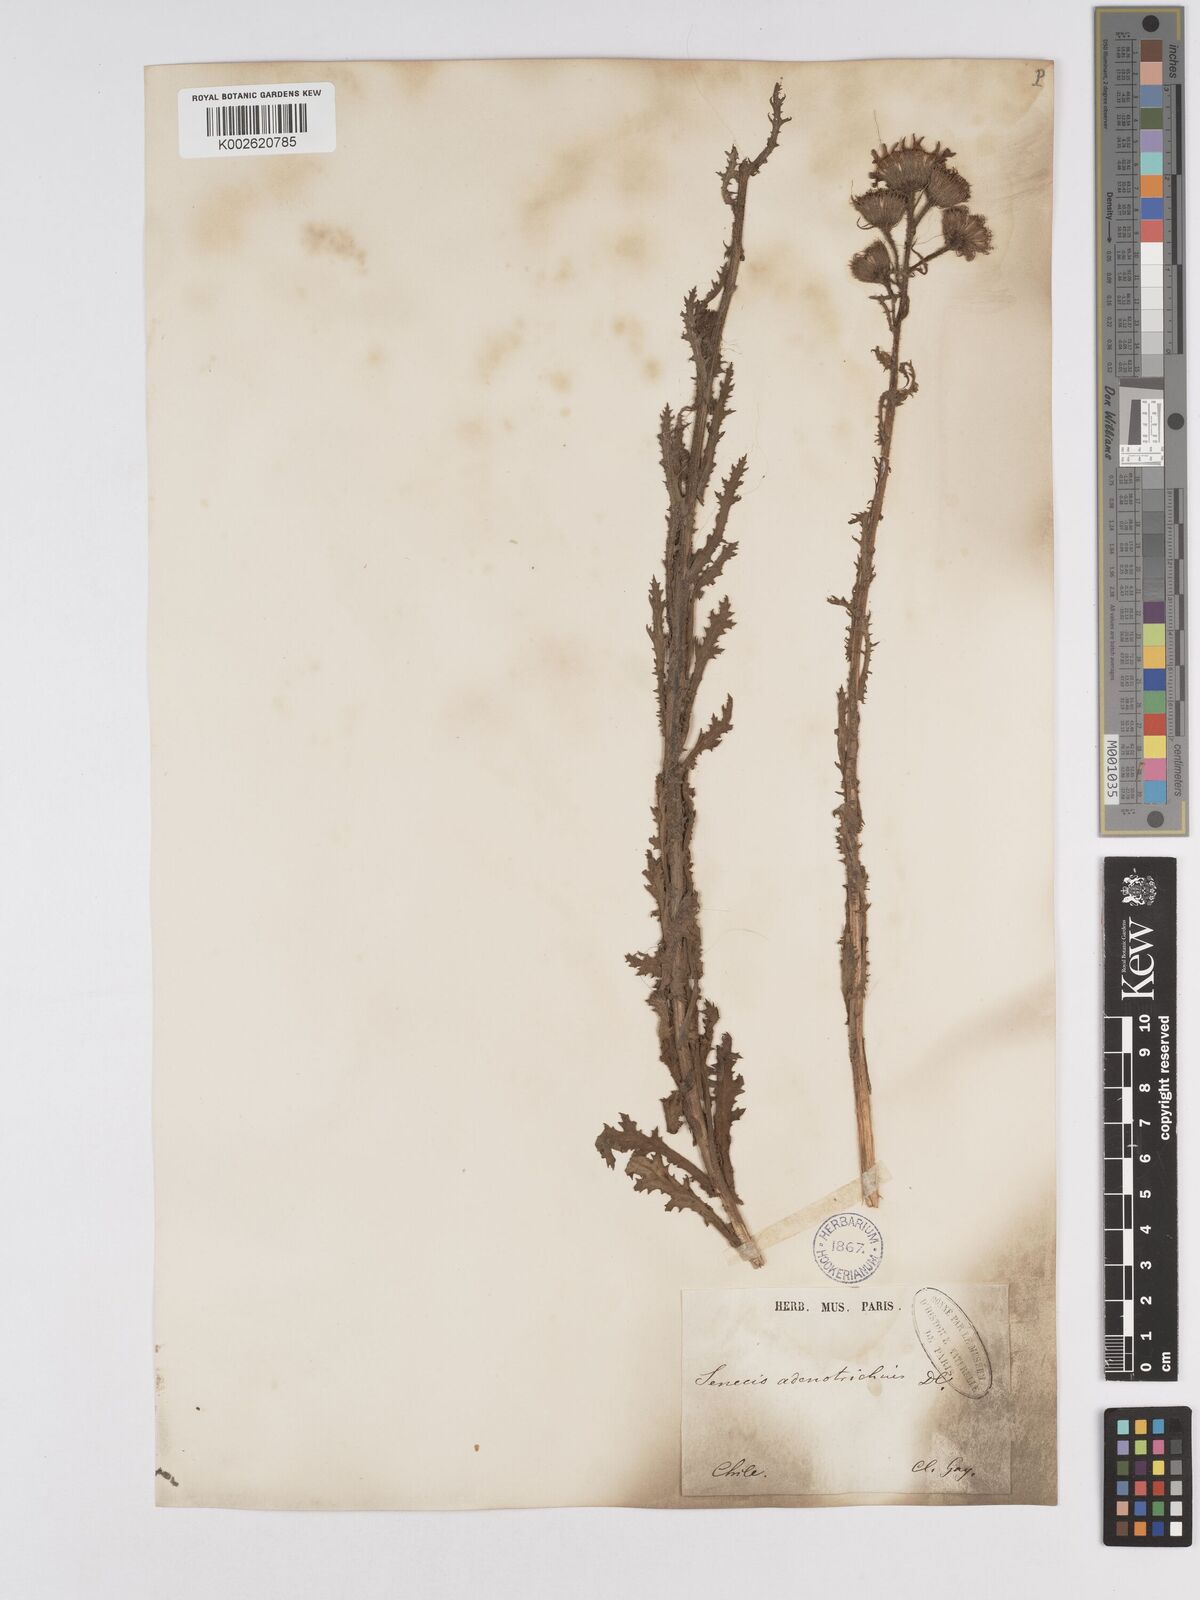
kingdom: Plantae
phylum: Tracheophyta
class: Magnoliopsida
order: Asterales
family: Asteraceae
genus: Senecio
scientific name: Senecio adenotrichius
